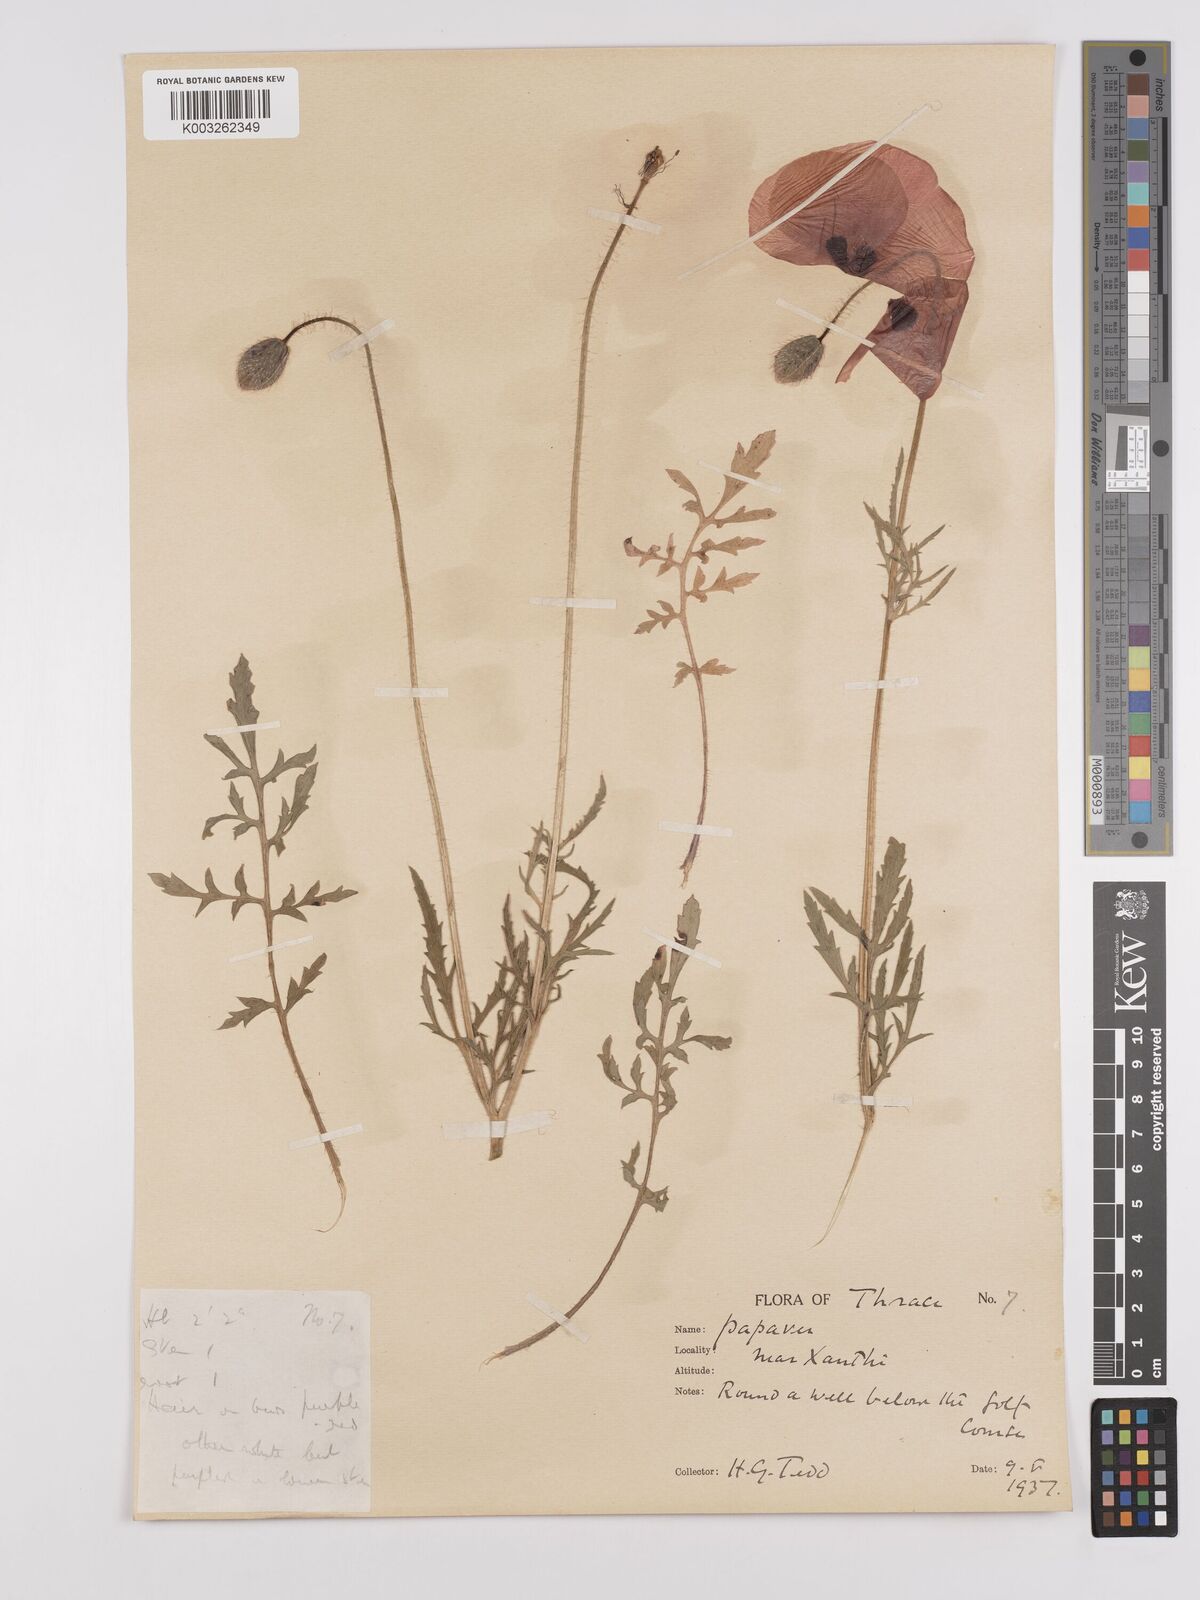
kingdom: Plantae
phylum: Tracheophyta
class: Magnoliopsida
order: Ranunculales
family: Papaveraceae
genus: Papaver
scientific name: Papaver rhoeas
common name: Corn poppy
